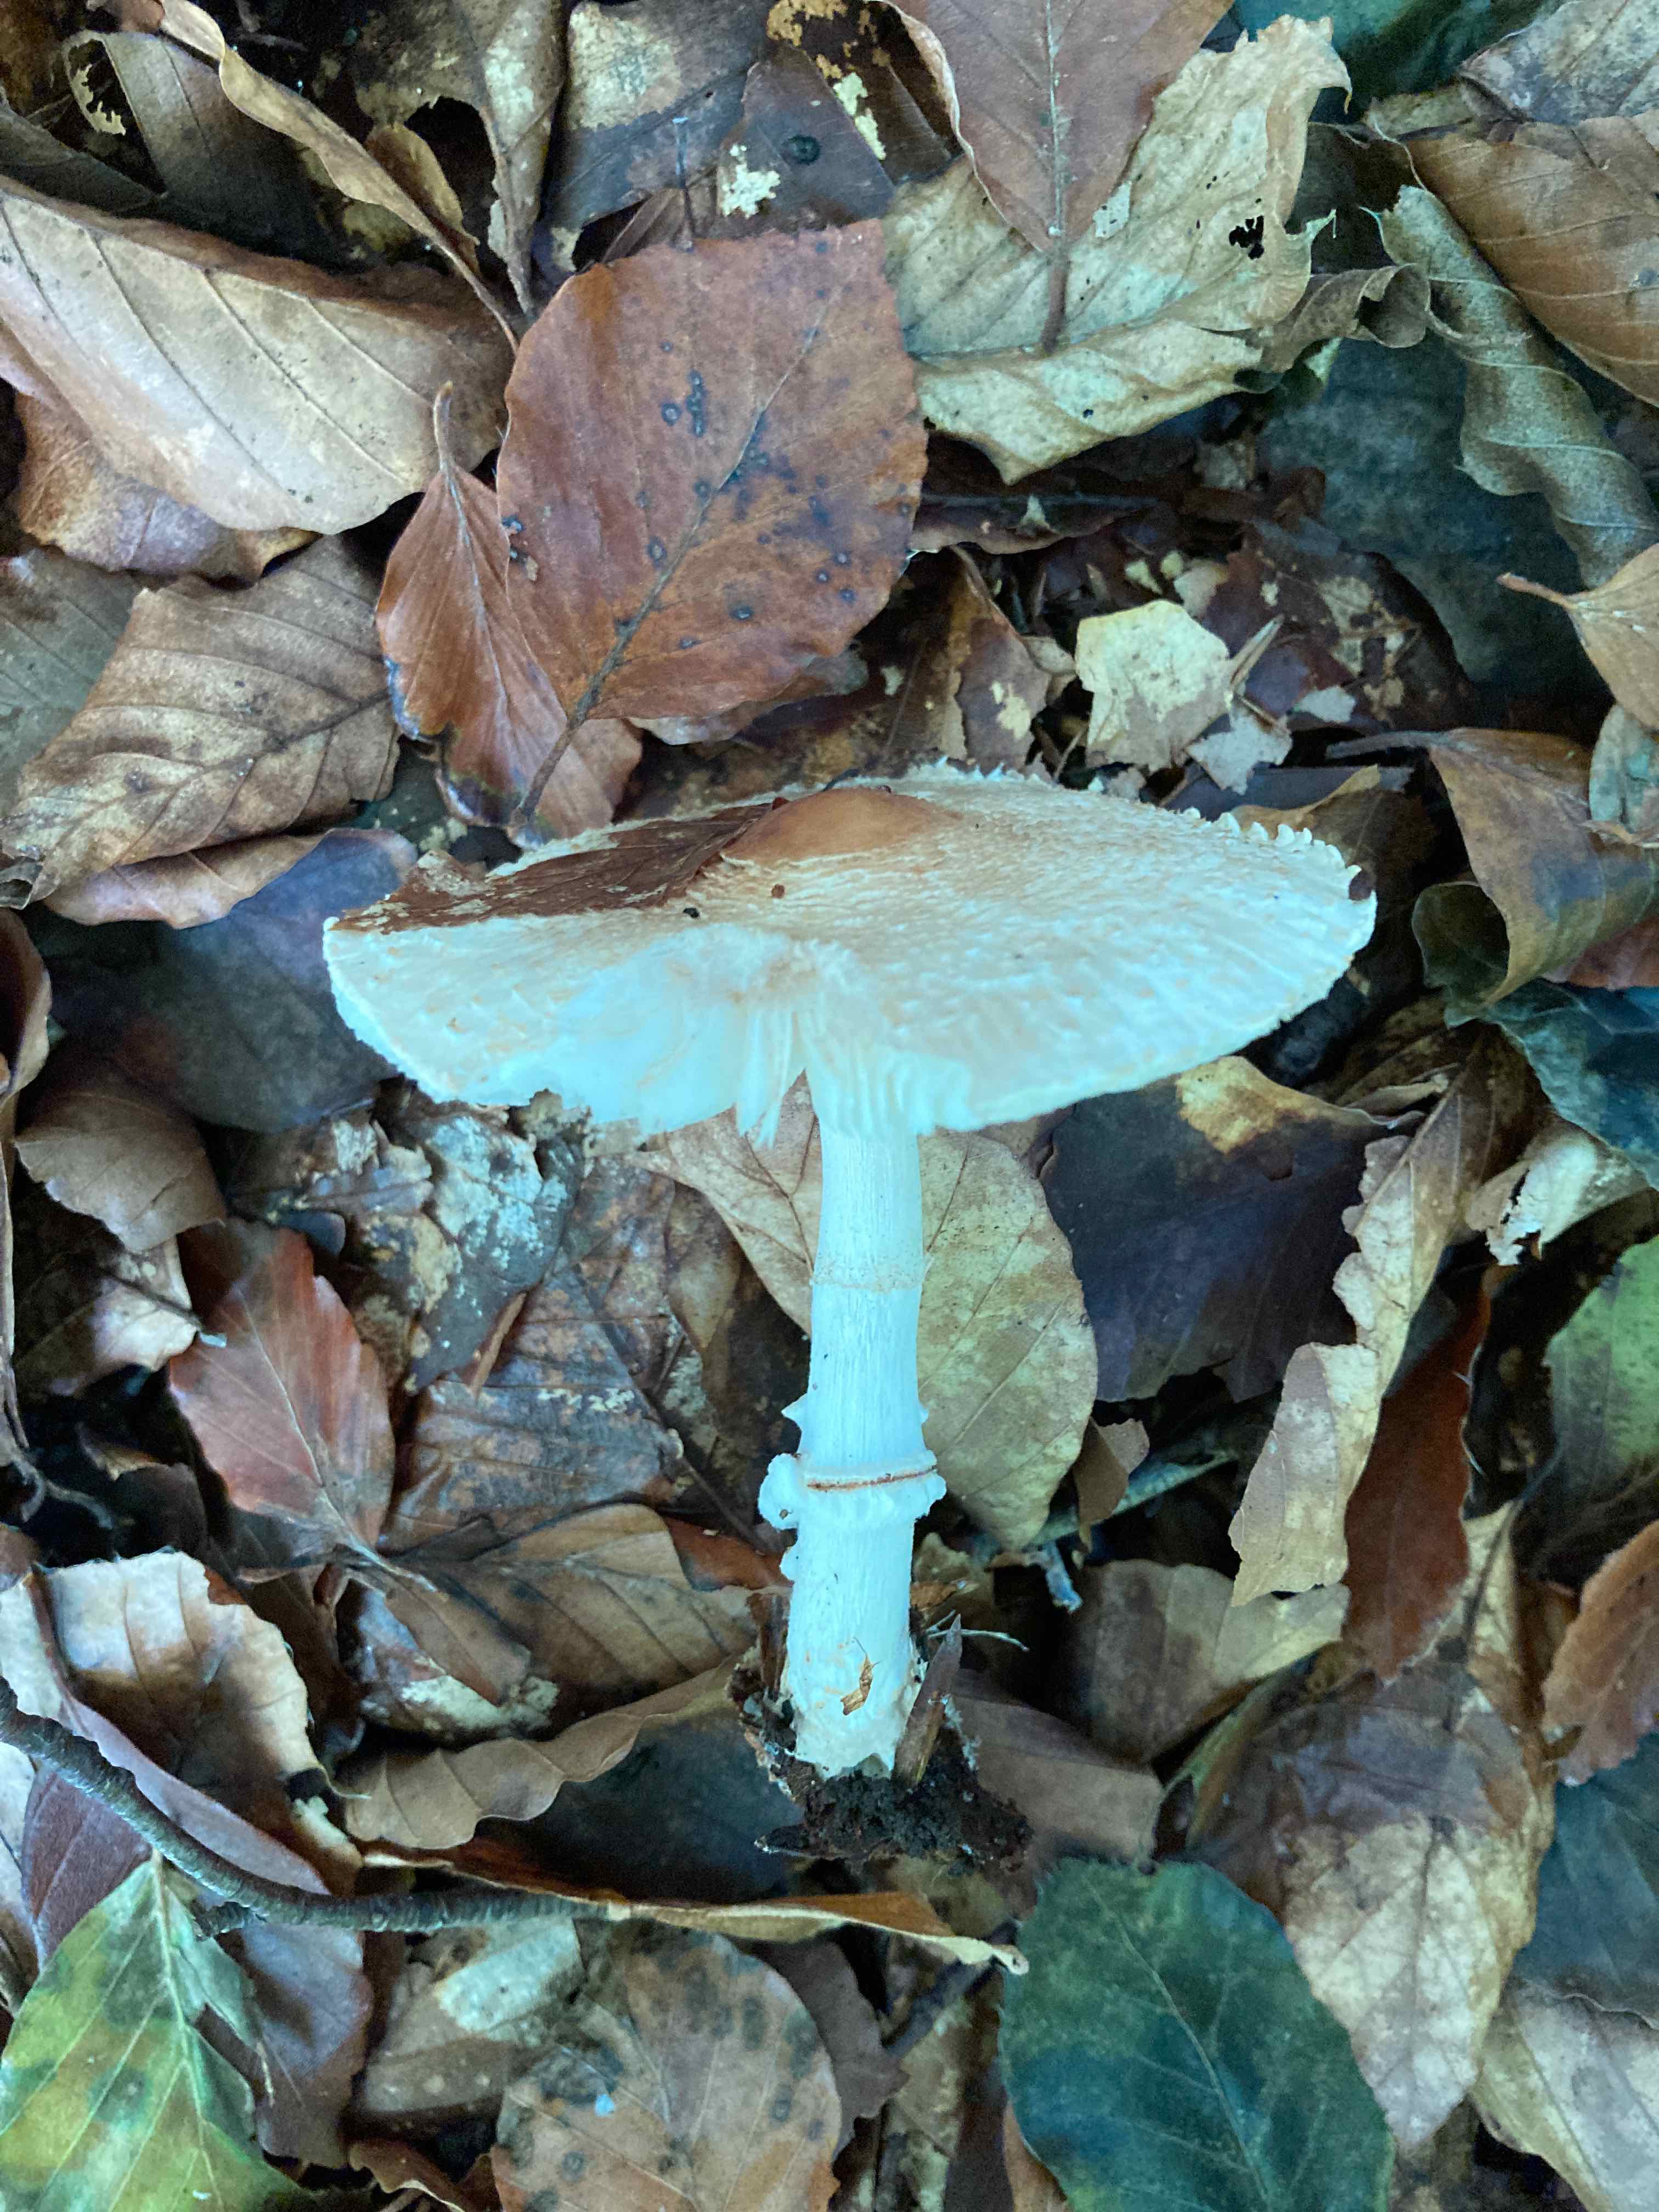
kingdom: Fungi
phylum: Basidiomycota
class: Agaricomycetes
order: Agaricales
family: Agaricaceae
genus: Lepiota
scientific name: Lepiota ignivolvata
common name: orangefodet parasolhat
